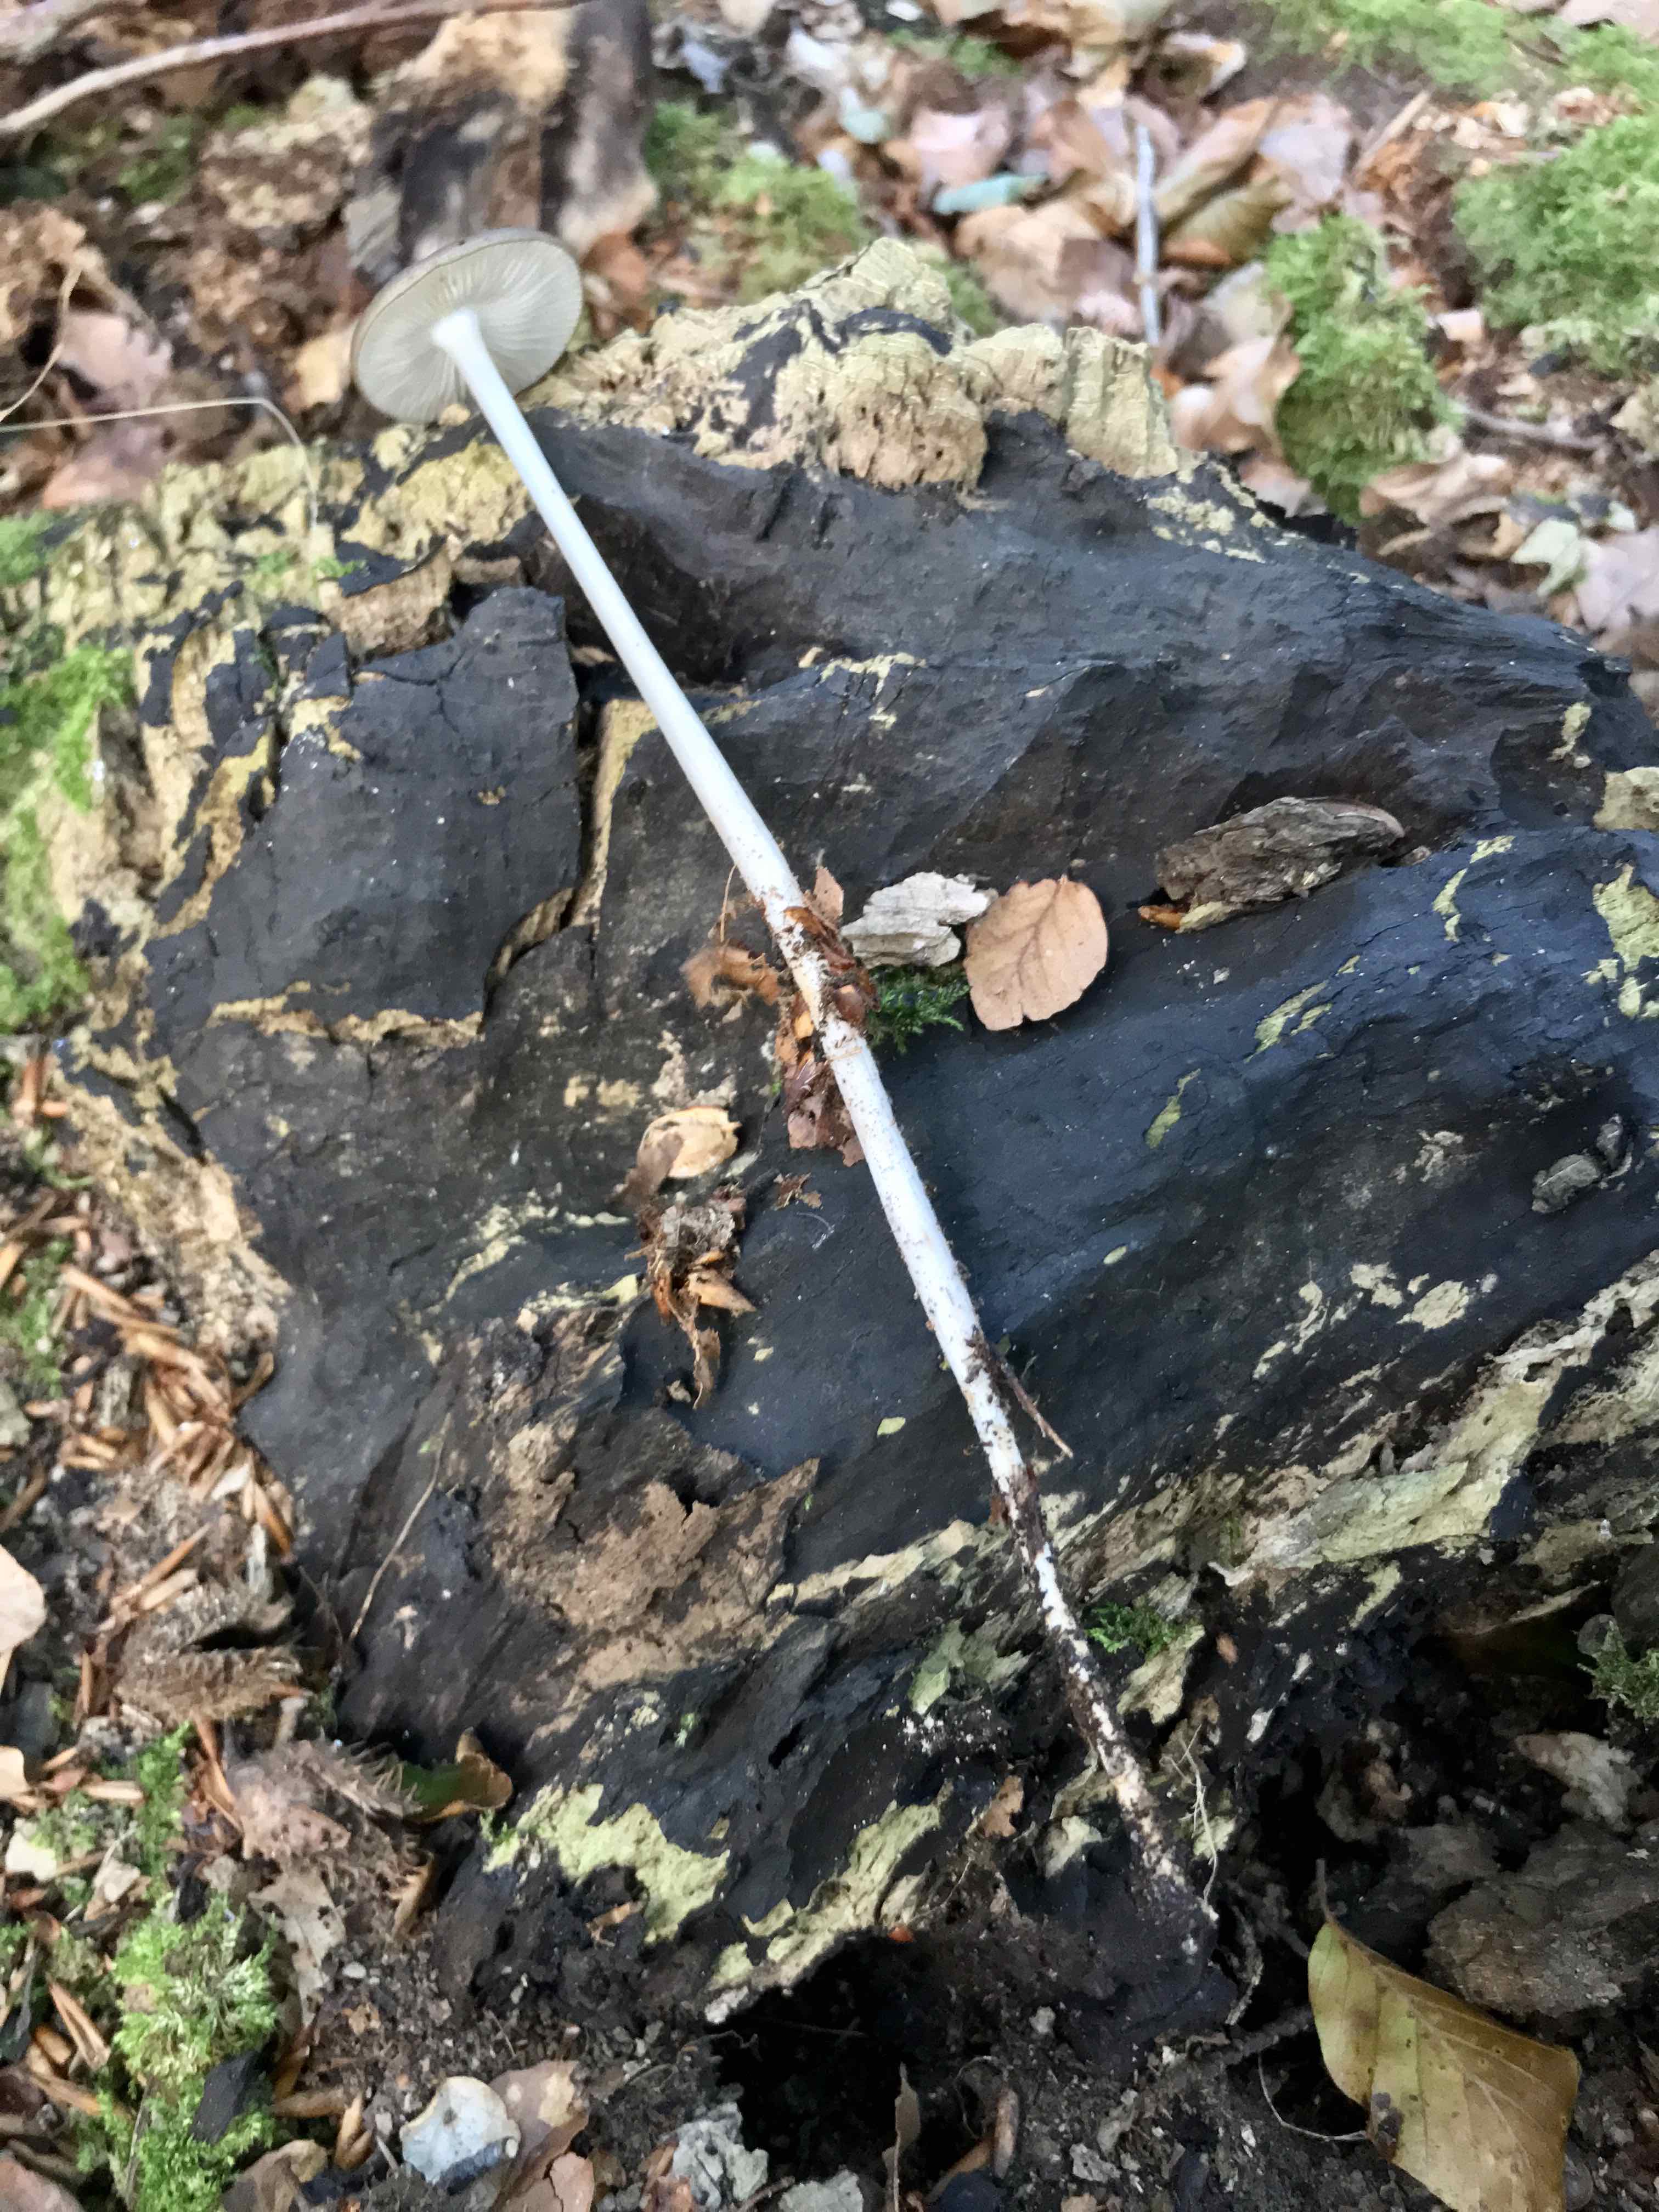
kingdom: Fungi
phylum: Basidiomycota
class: Agaricomycetes
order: Agaricales
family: Physalacriaceae
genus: Hymenopellis
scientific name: Hymenopellis radicata
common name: almindelig pælerodshat
